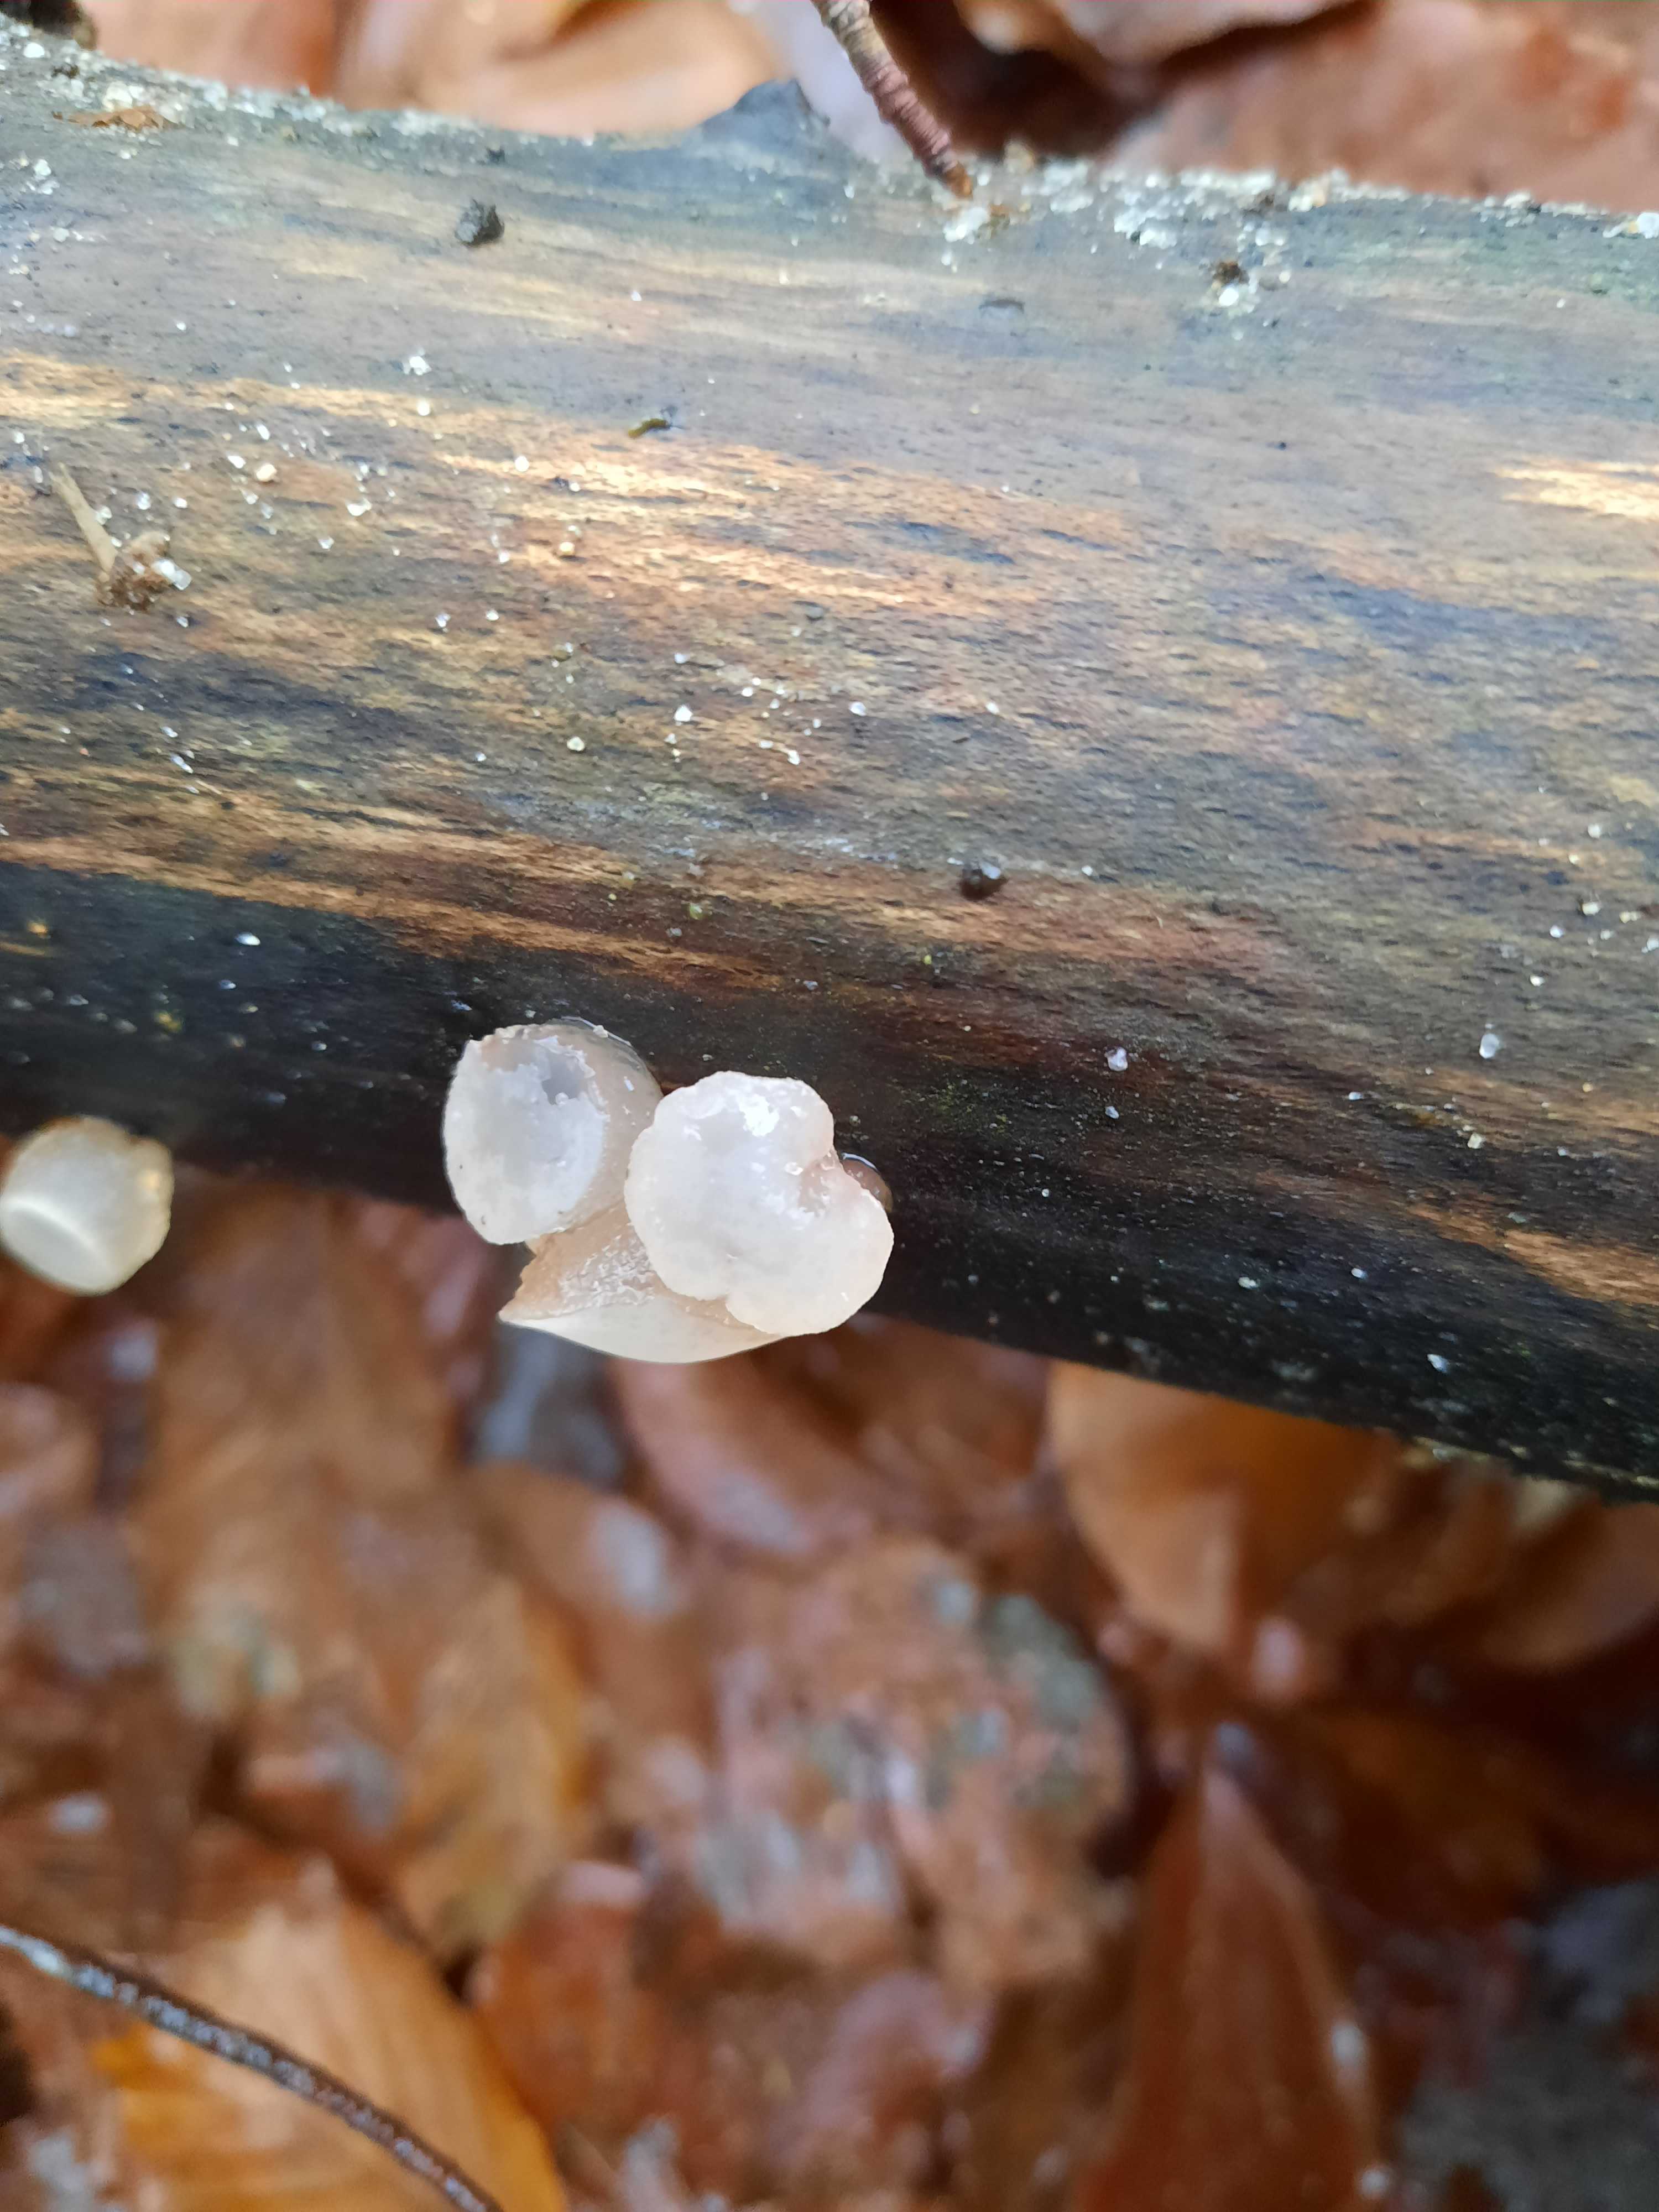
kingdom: Fungi
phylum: Ascomycota
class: Leotiomycetes
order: Helotiales
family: Gelatinodiscaceae
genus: Neobulgaria
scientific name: Neobulgaria pura
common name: bleg bævreskive
